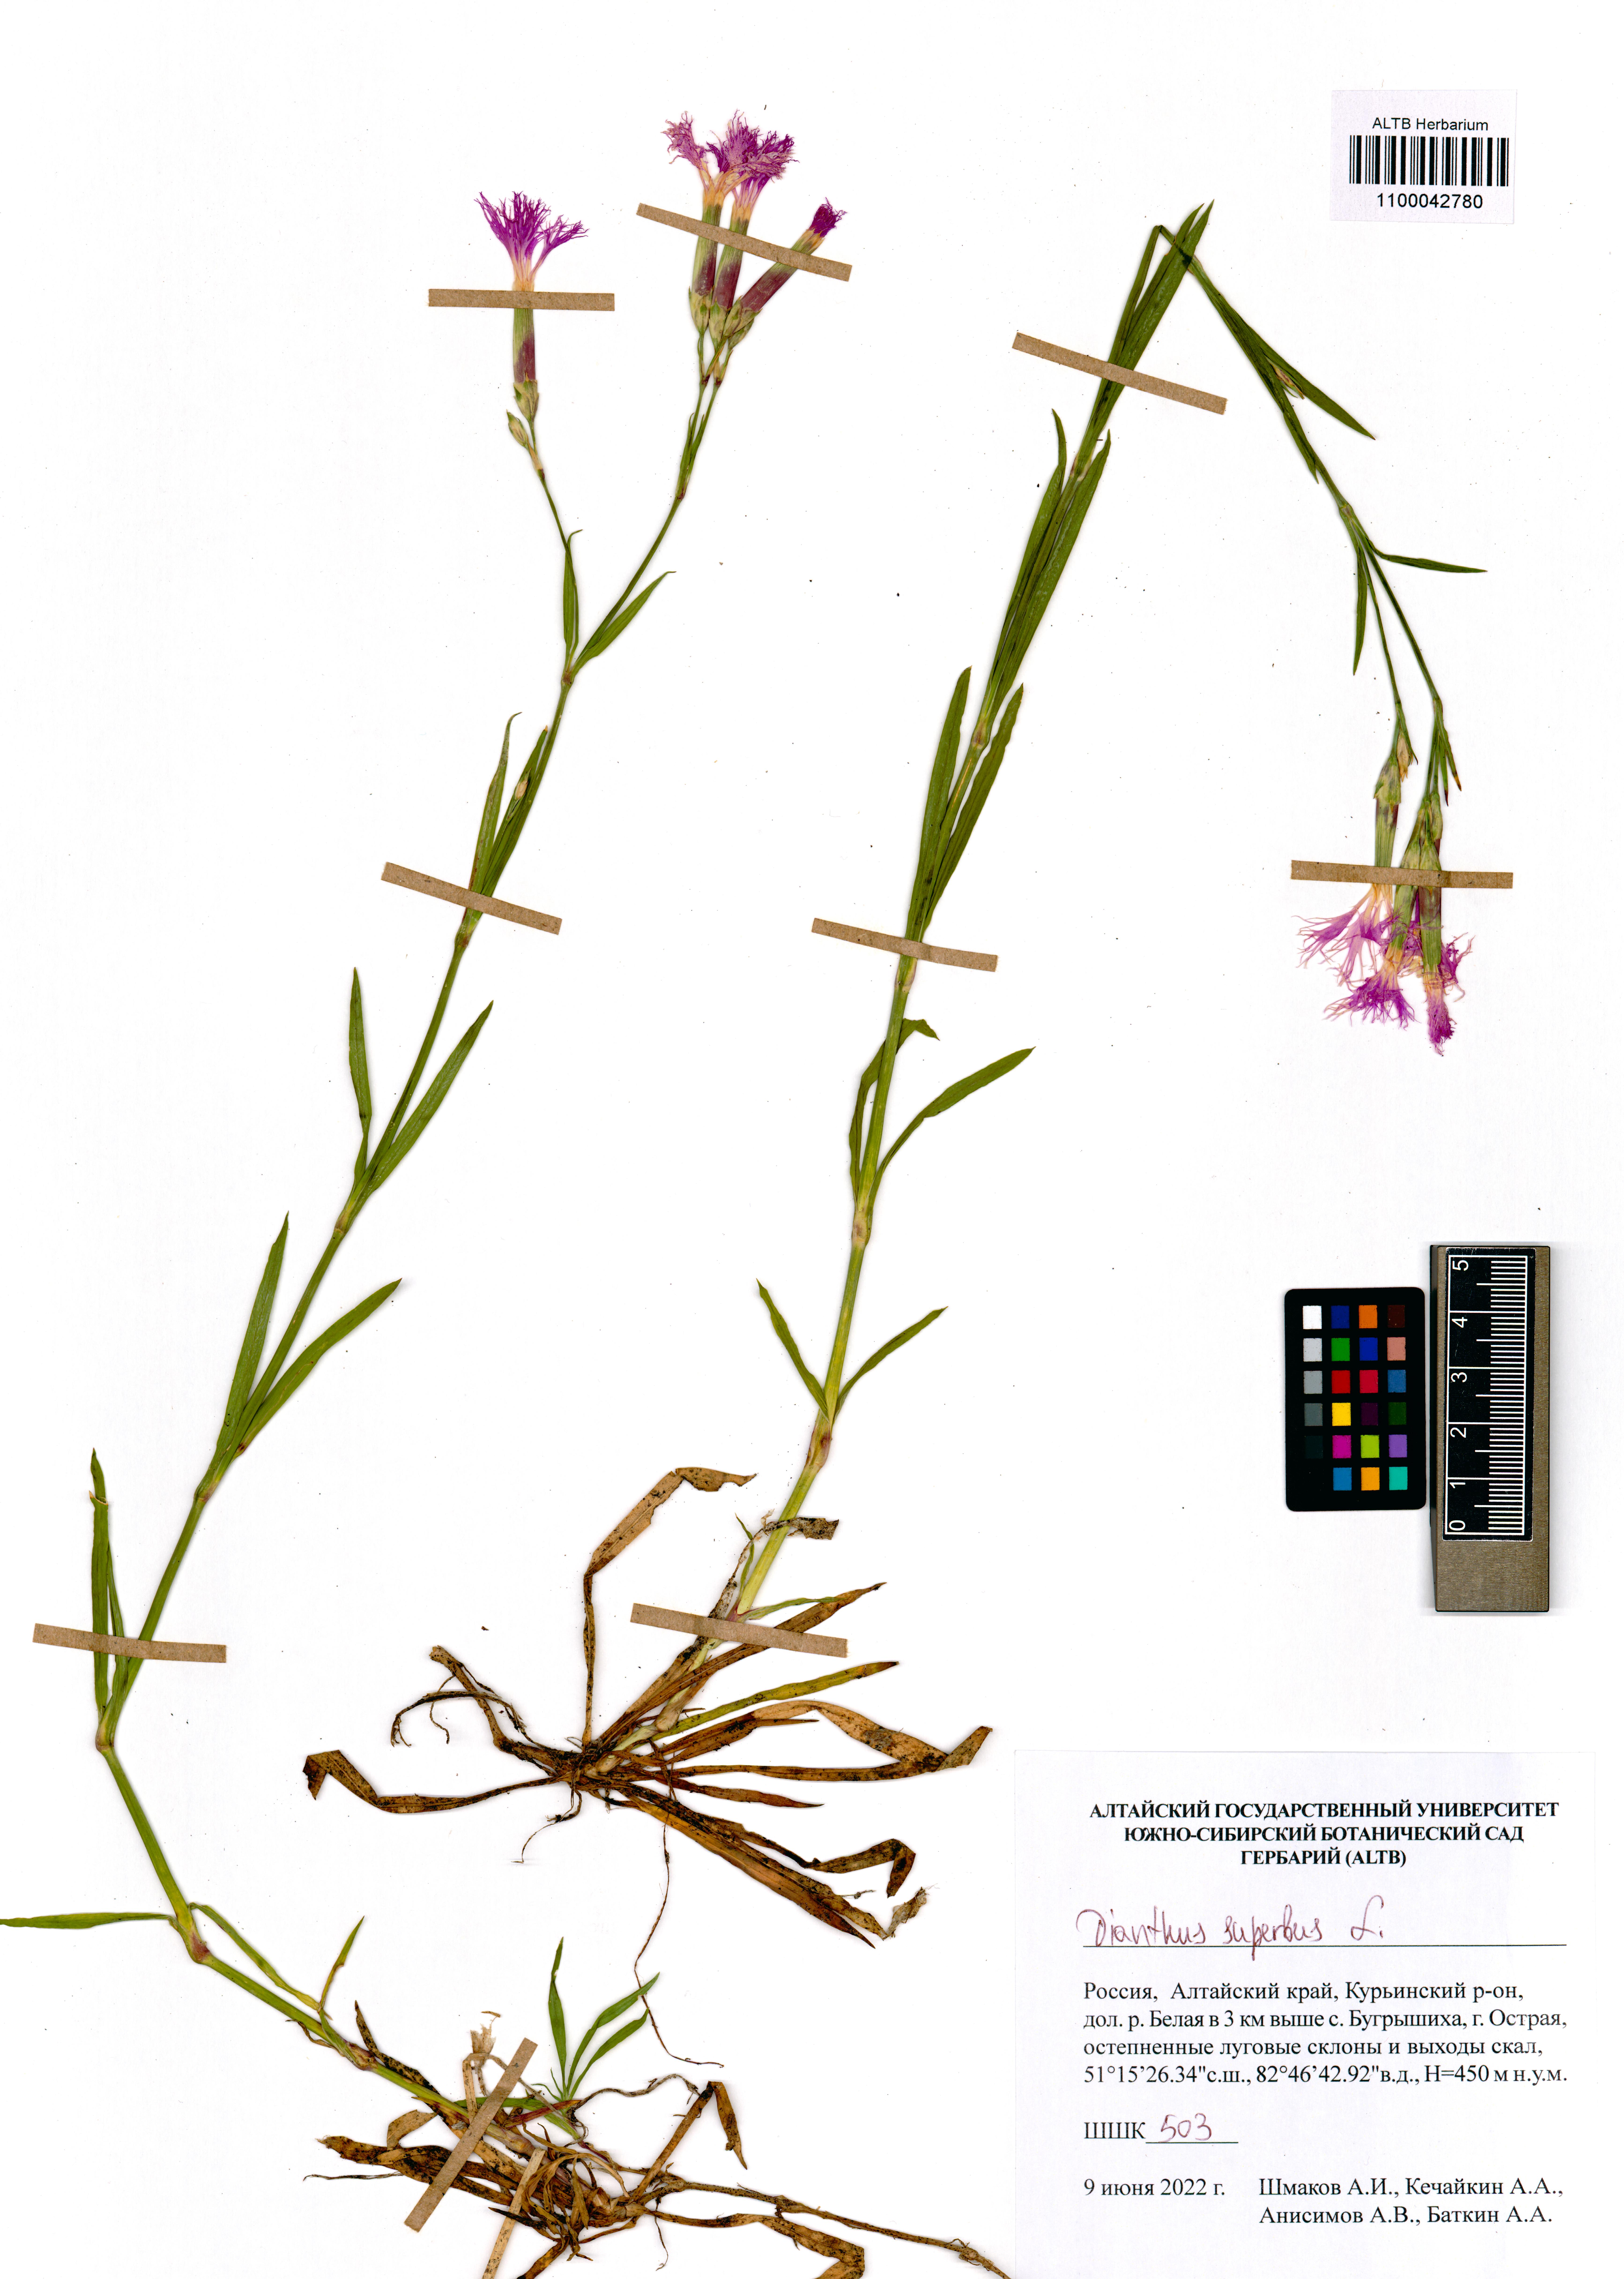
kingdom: Plantae
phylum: Tracheophyta
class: Magnoliopsida
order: Caryophyllales
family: Caryophyllaceae
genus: Dianthus
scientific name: Dianthus superbus
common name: Fringed pink
